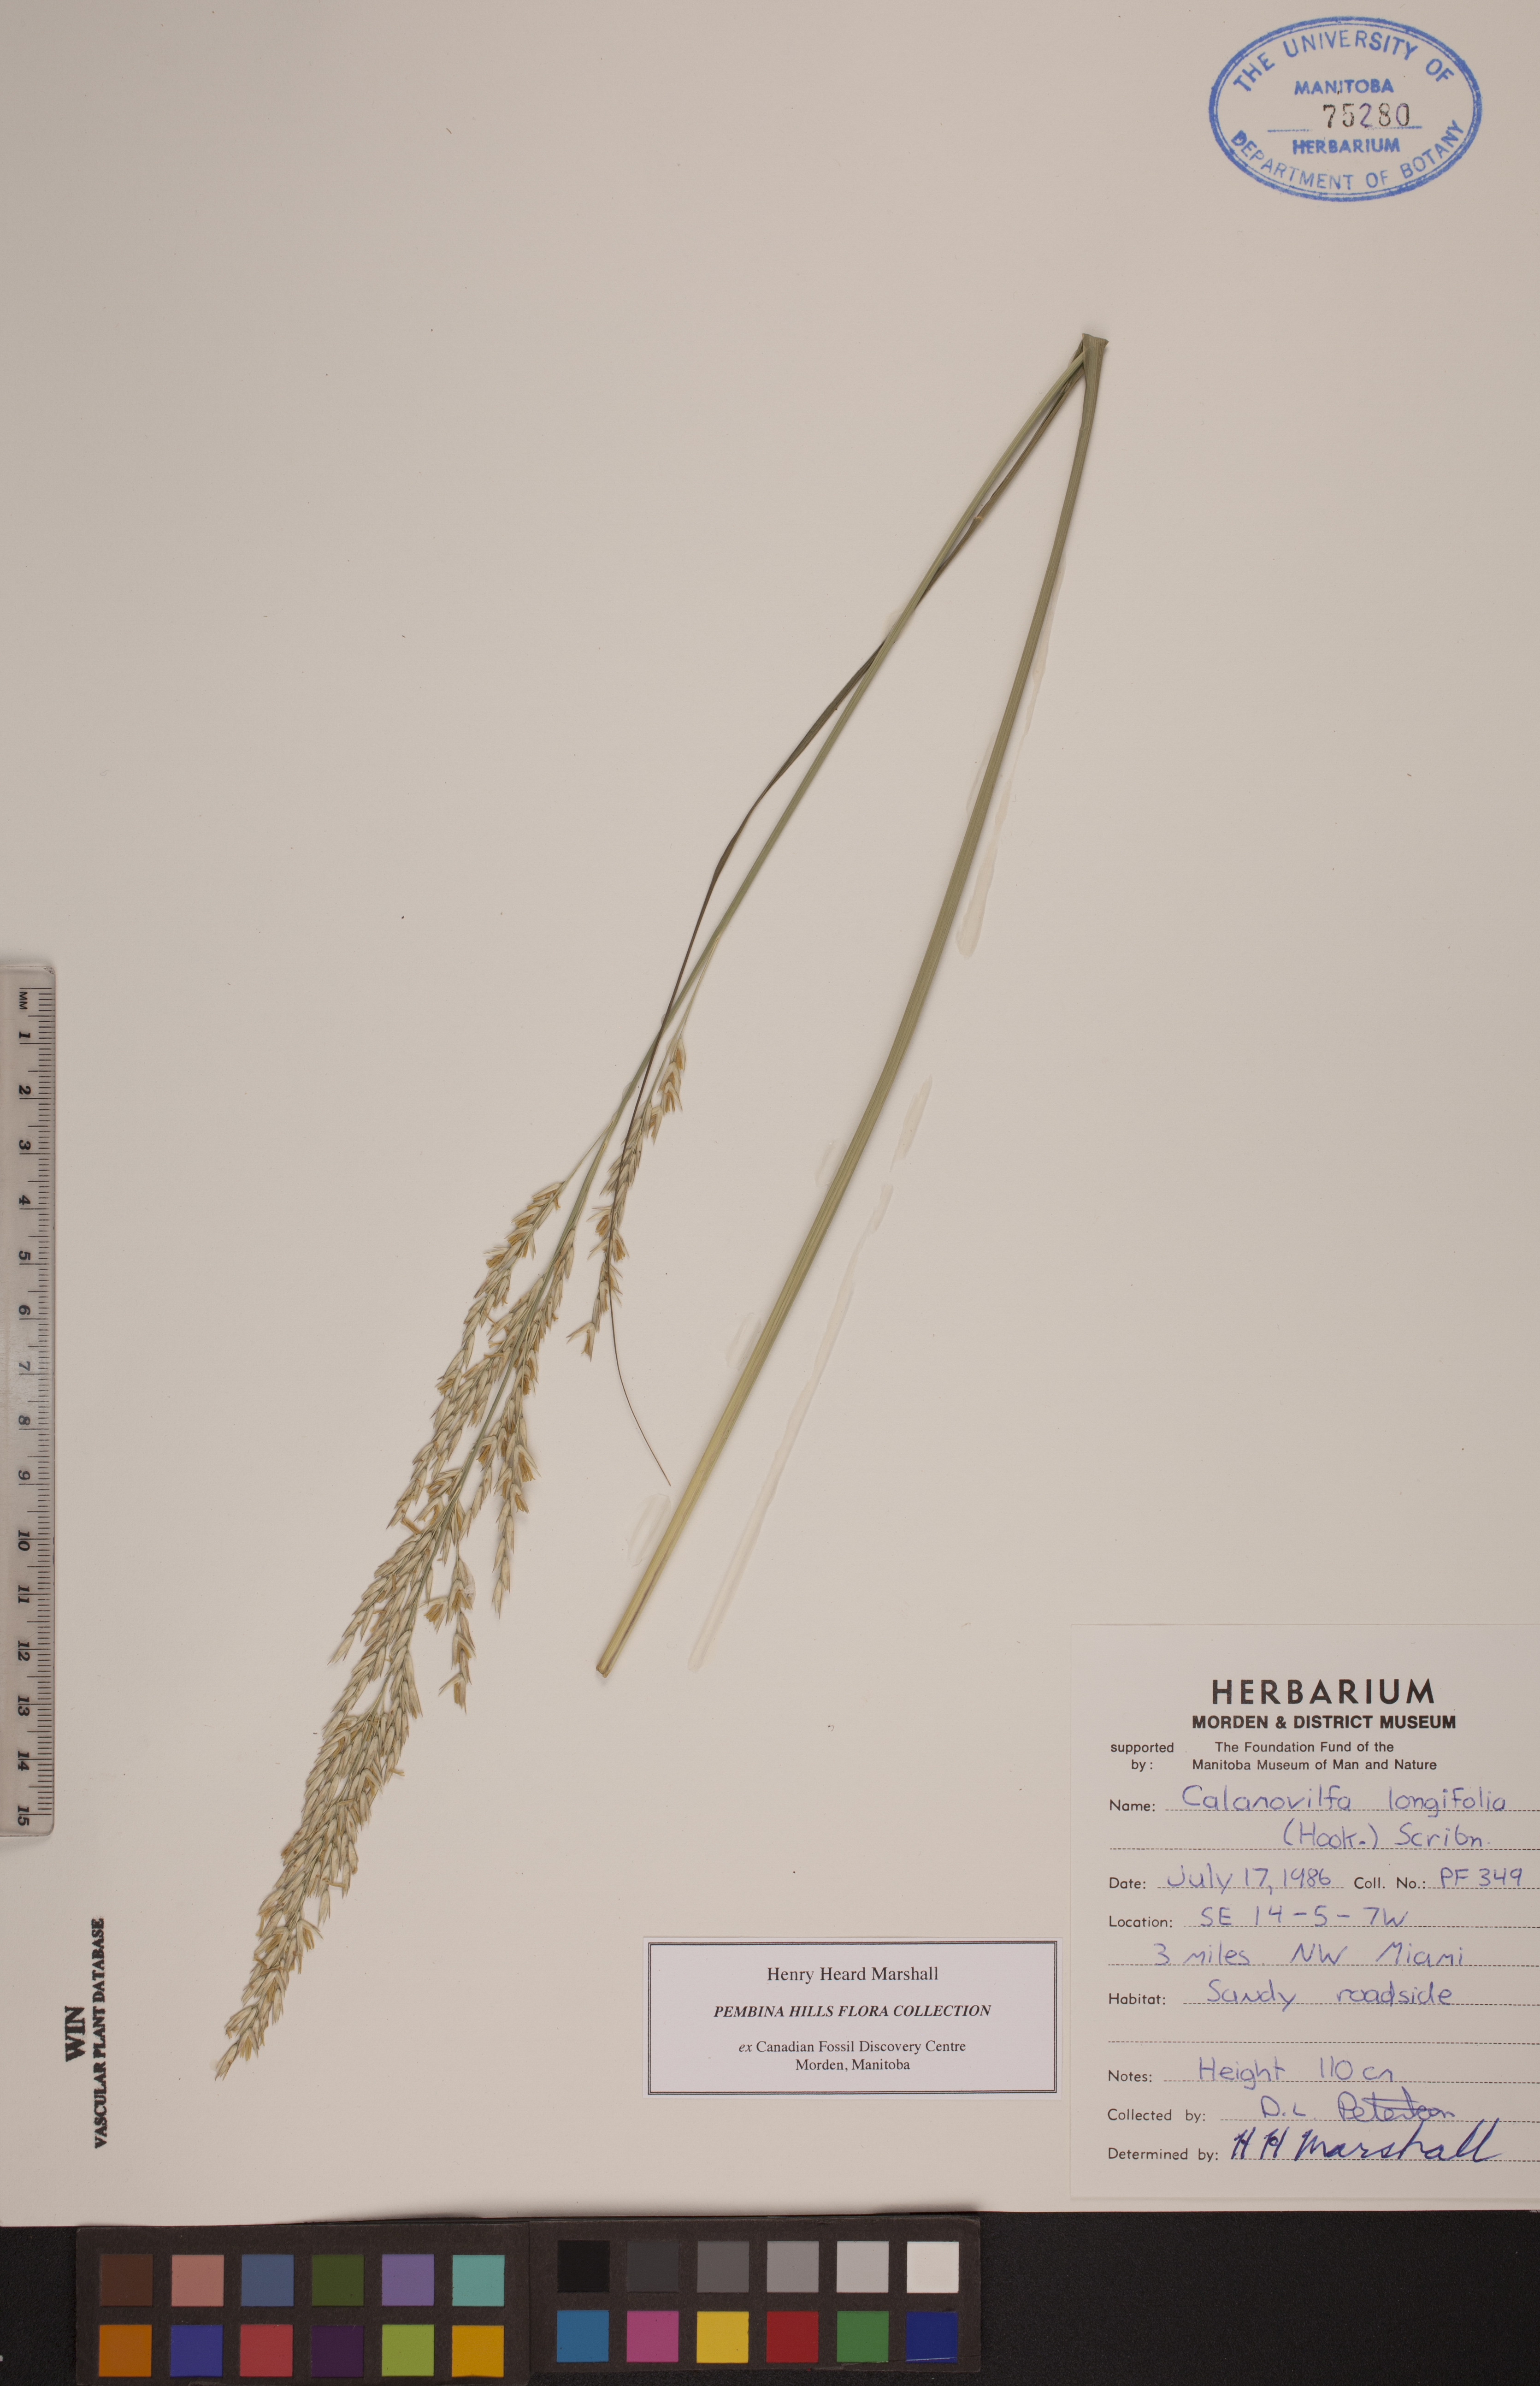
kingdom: Plantae
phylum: Tracheophyta
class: Liliopsida
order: Poales
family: Poaceae
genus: Sporobolus
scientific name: Sporobolus rigidus
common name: Prairie sandreed
